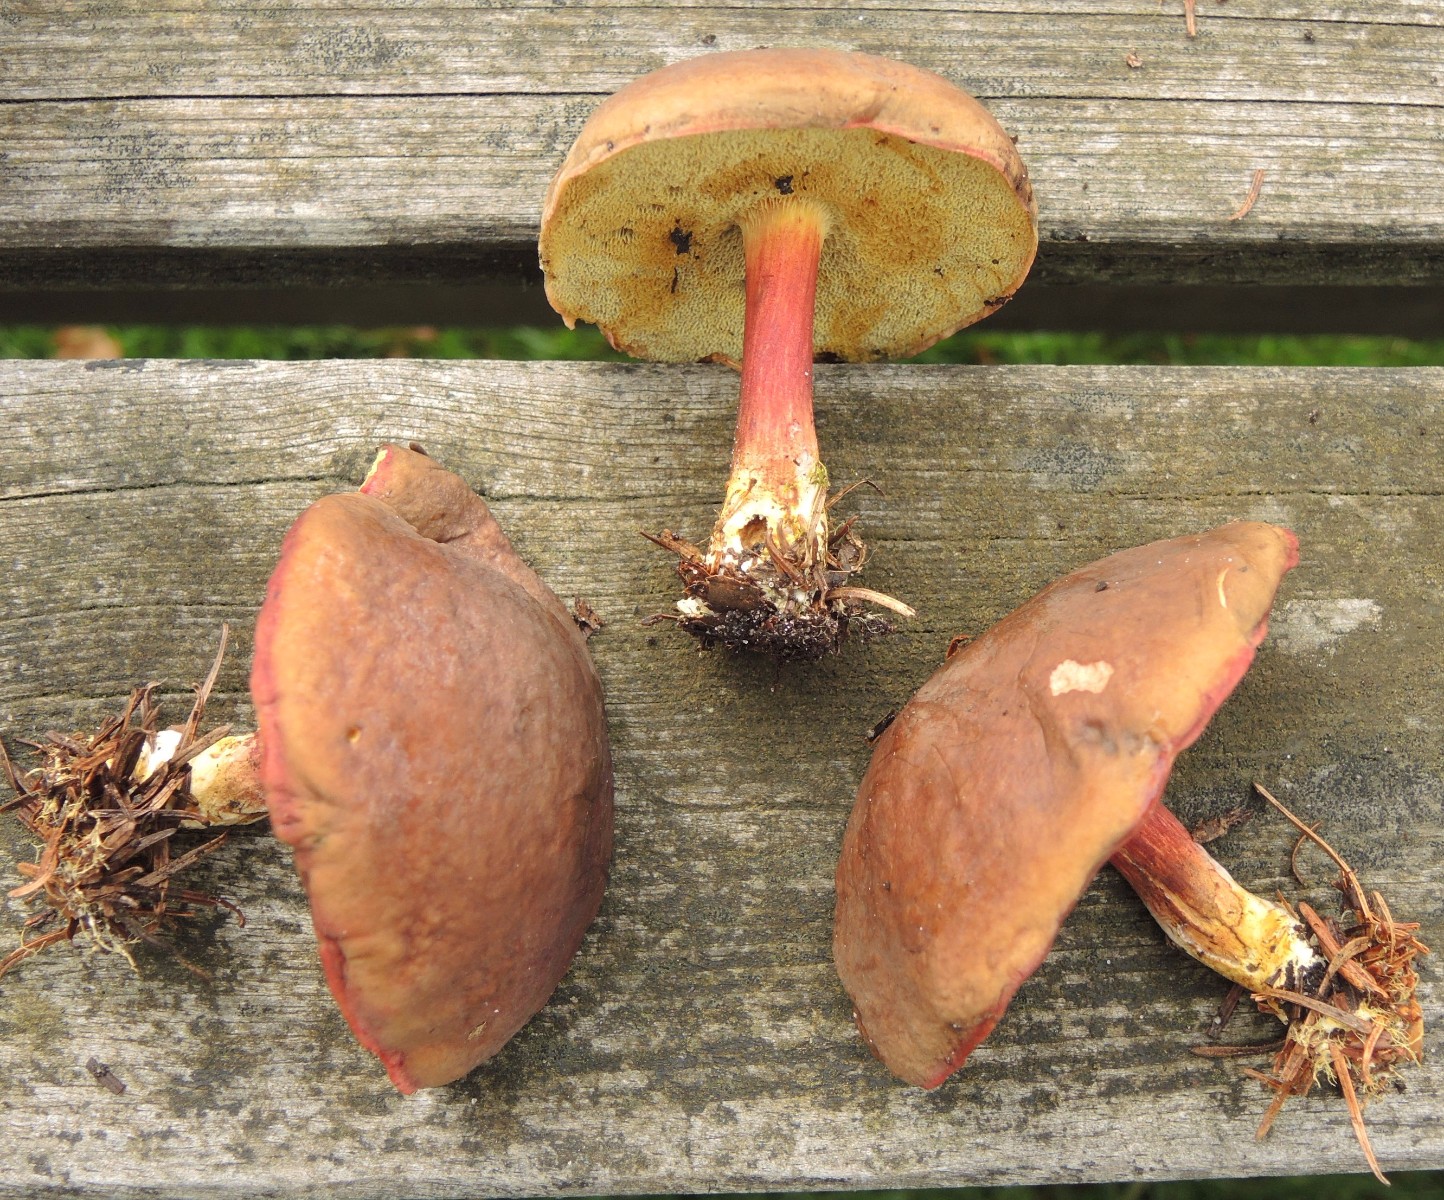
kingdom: Fungi
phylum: Basidiomycota
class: Agaricomycetes
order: Boletales
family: Boletaceae
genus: Xerocomellus
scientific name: Xerocomellus pruinatus
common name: dugget rørhat
